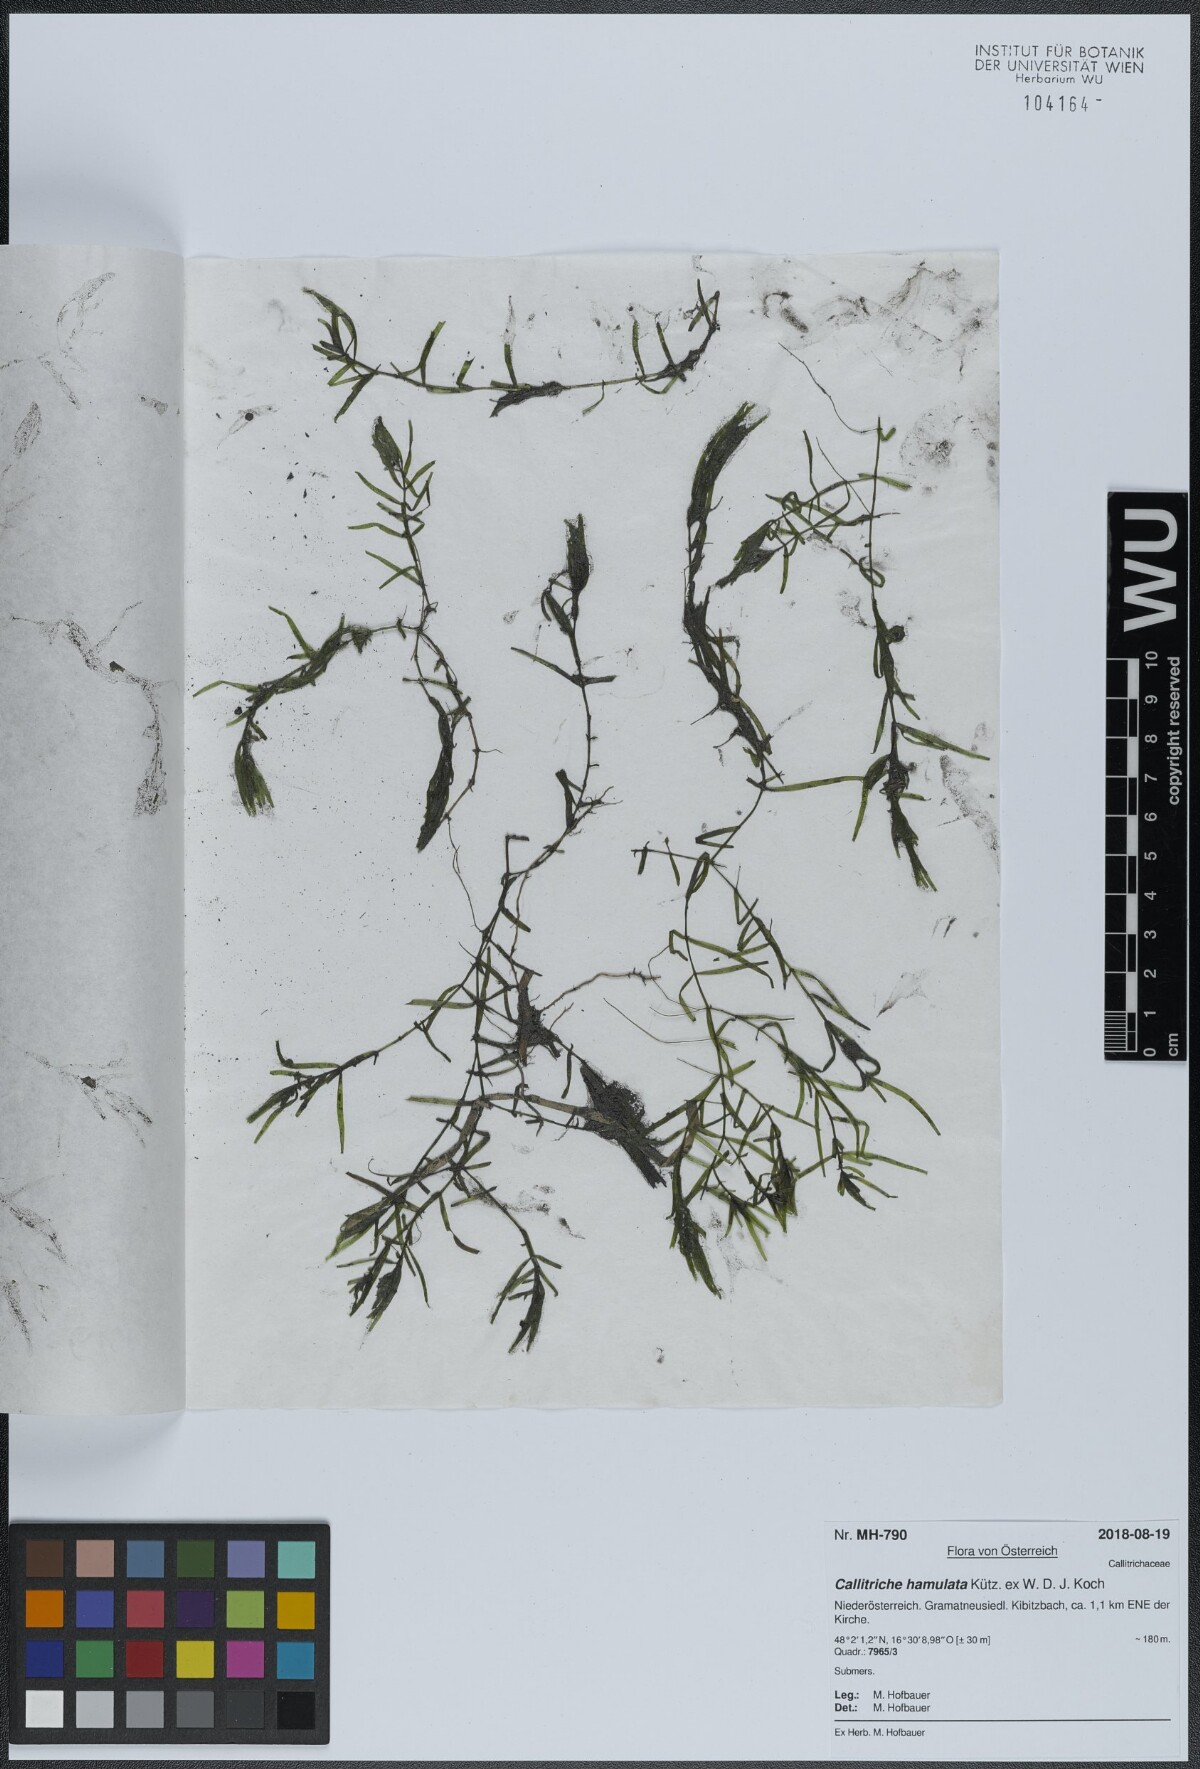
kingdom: Plantae
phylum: Tracheophyta
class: Magnoliopsida
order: Lamiales
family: Plantaginaceae
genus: Callitriche
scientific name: Callitriche obtusangula
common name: Blunt-fruited water-starwort
